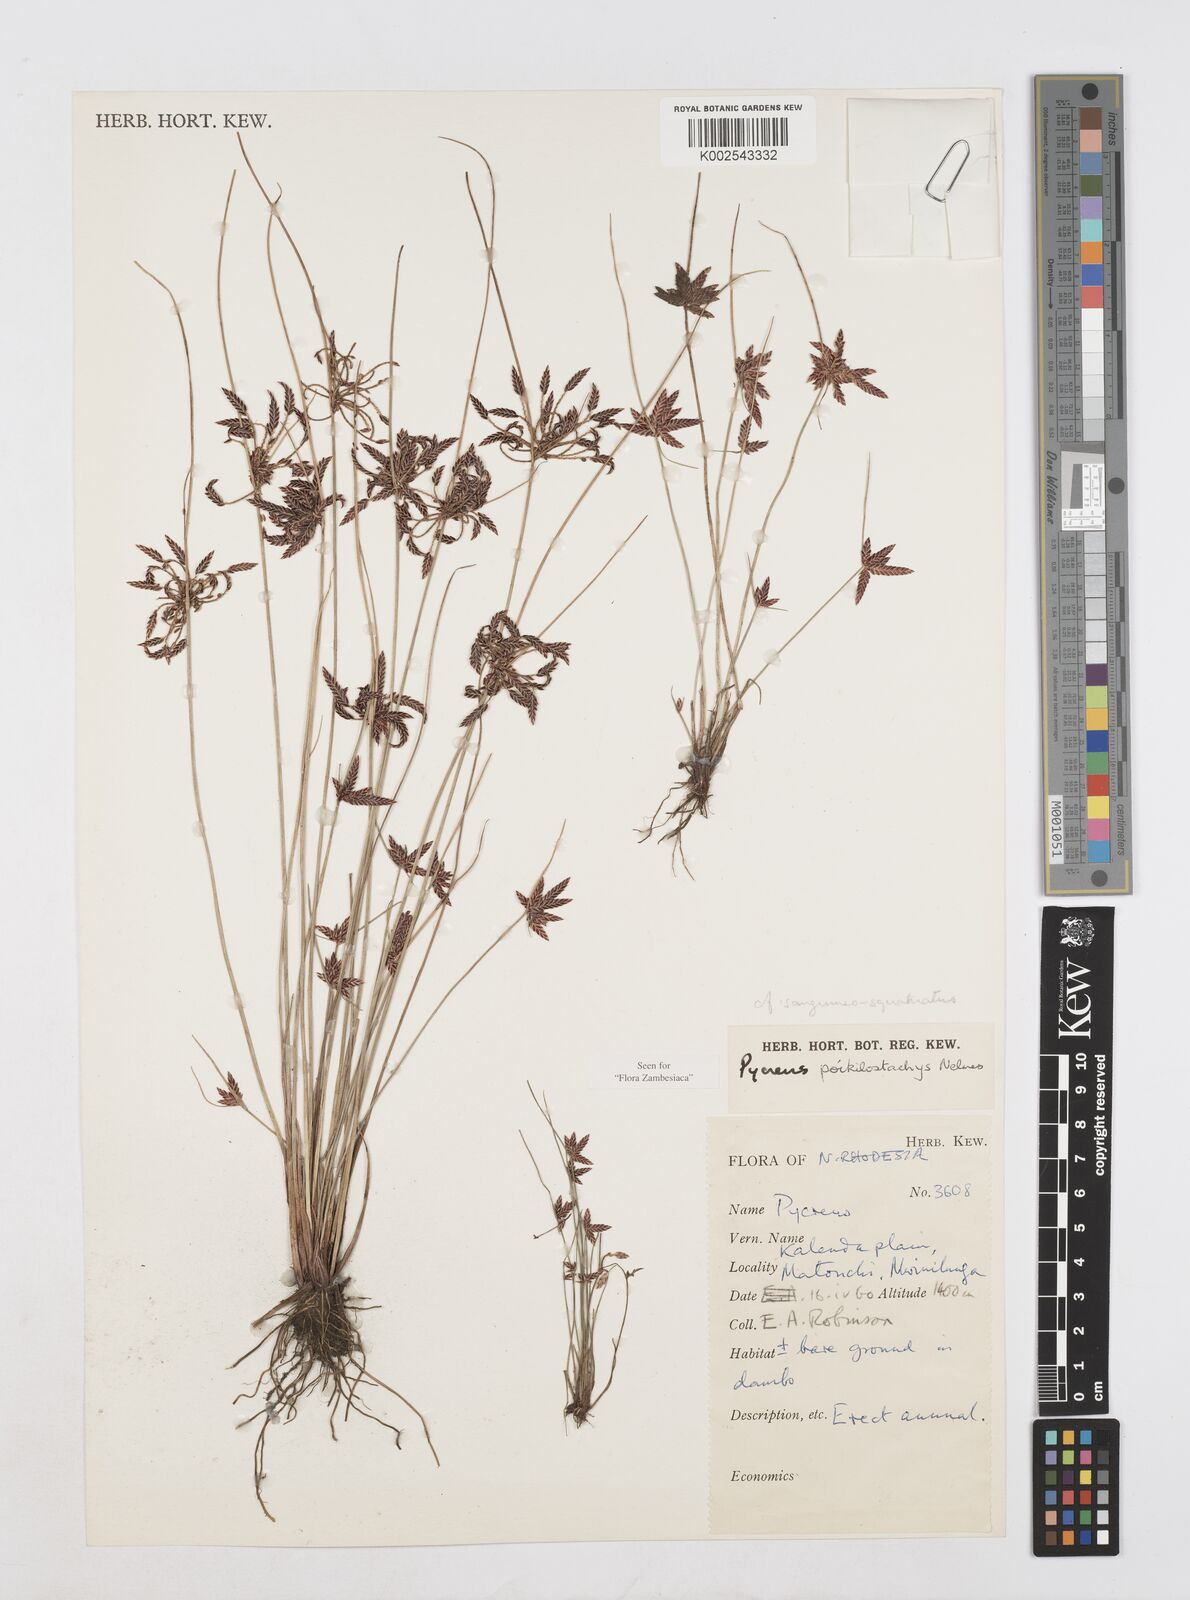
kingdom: Plantae
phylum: Tracheophyta
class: Liliopsida
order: Poales
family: Cyperaceae
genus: Cyperus
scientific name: Cyperus poikilostachys
